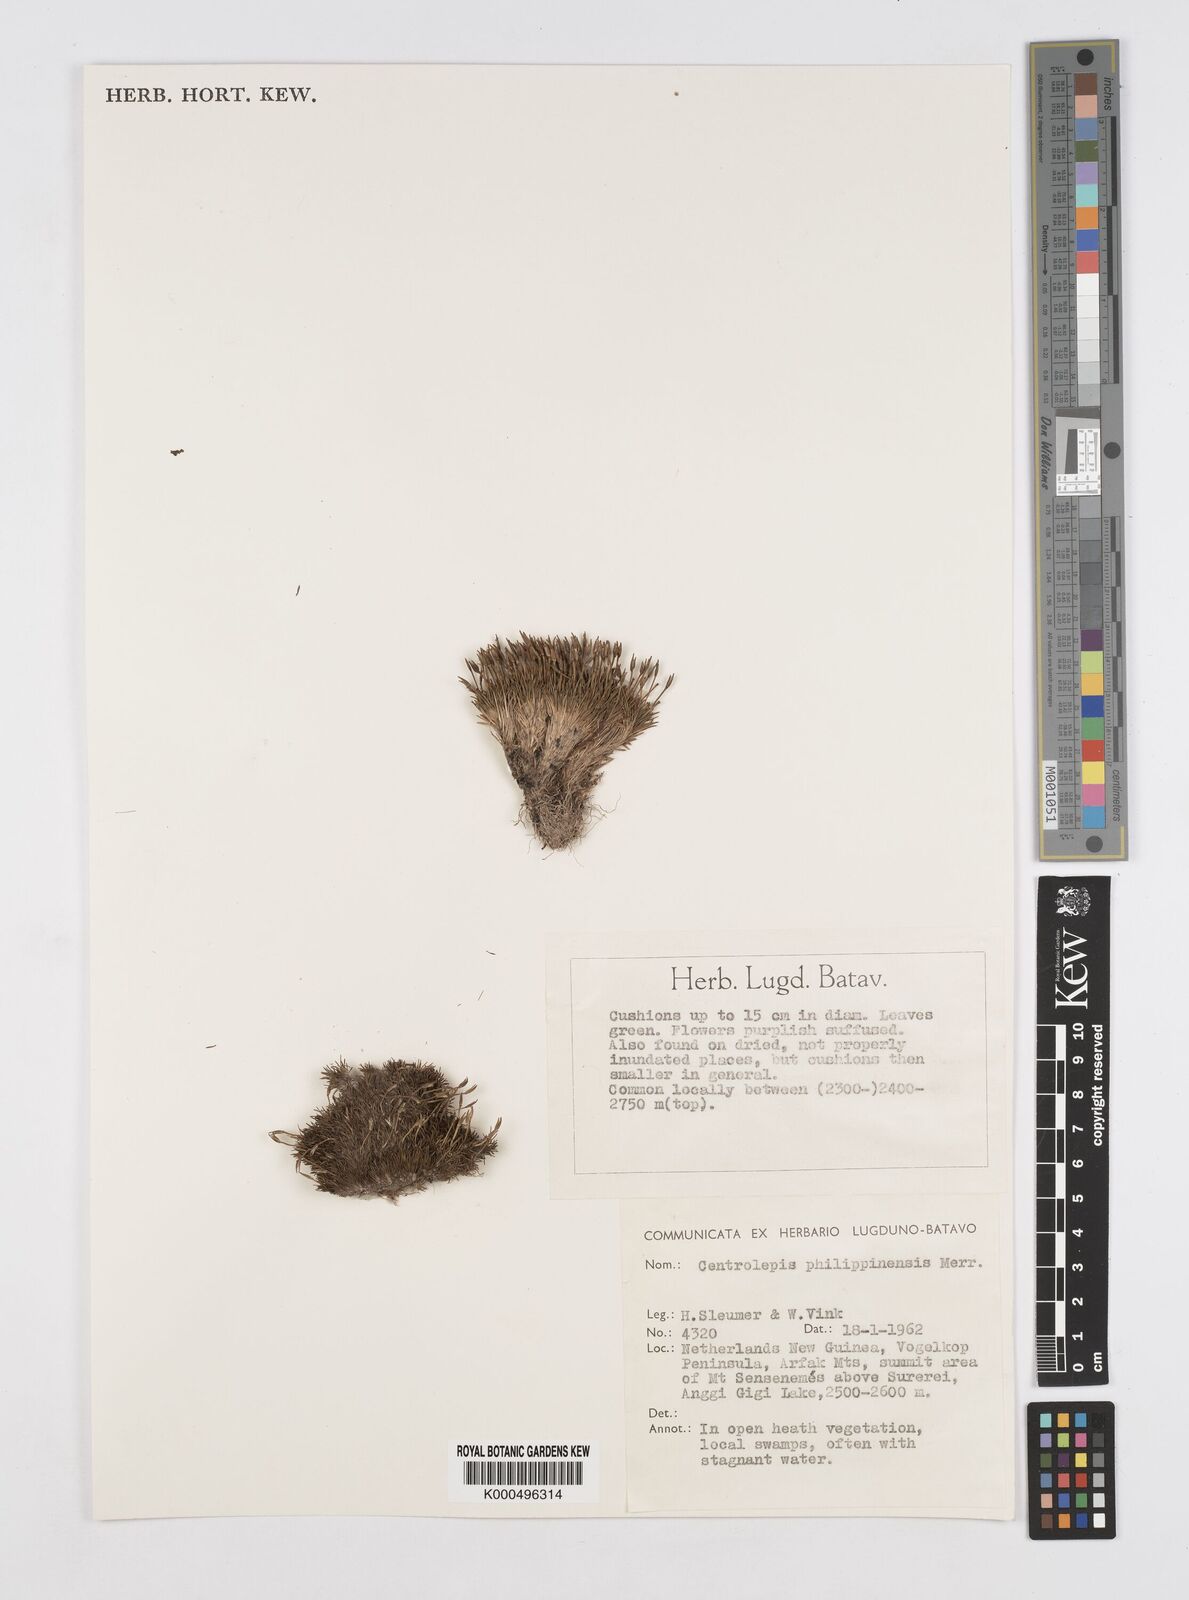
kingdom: Plantae
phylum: Tracheophyta
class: Liliopsida
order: Poales
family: Restionaceae
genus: Centrolepis
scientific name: Centrolepis philippinensis
